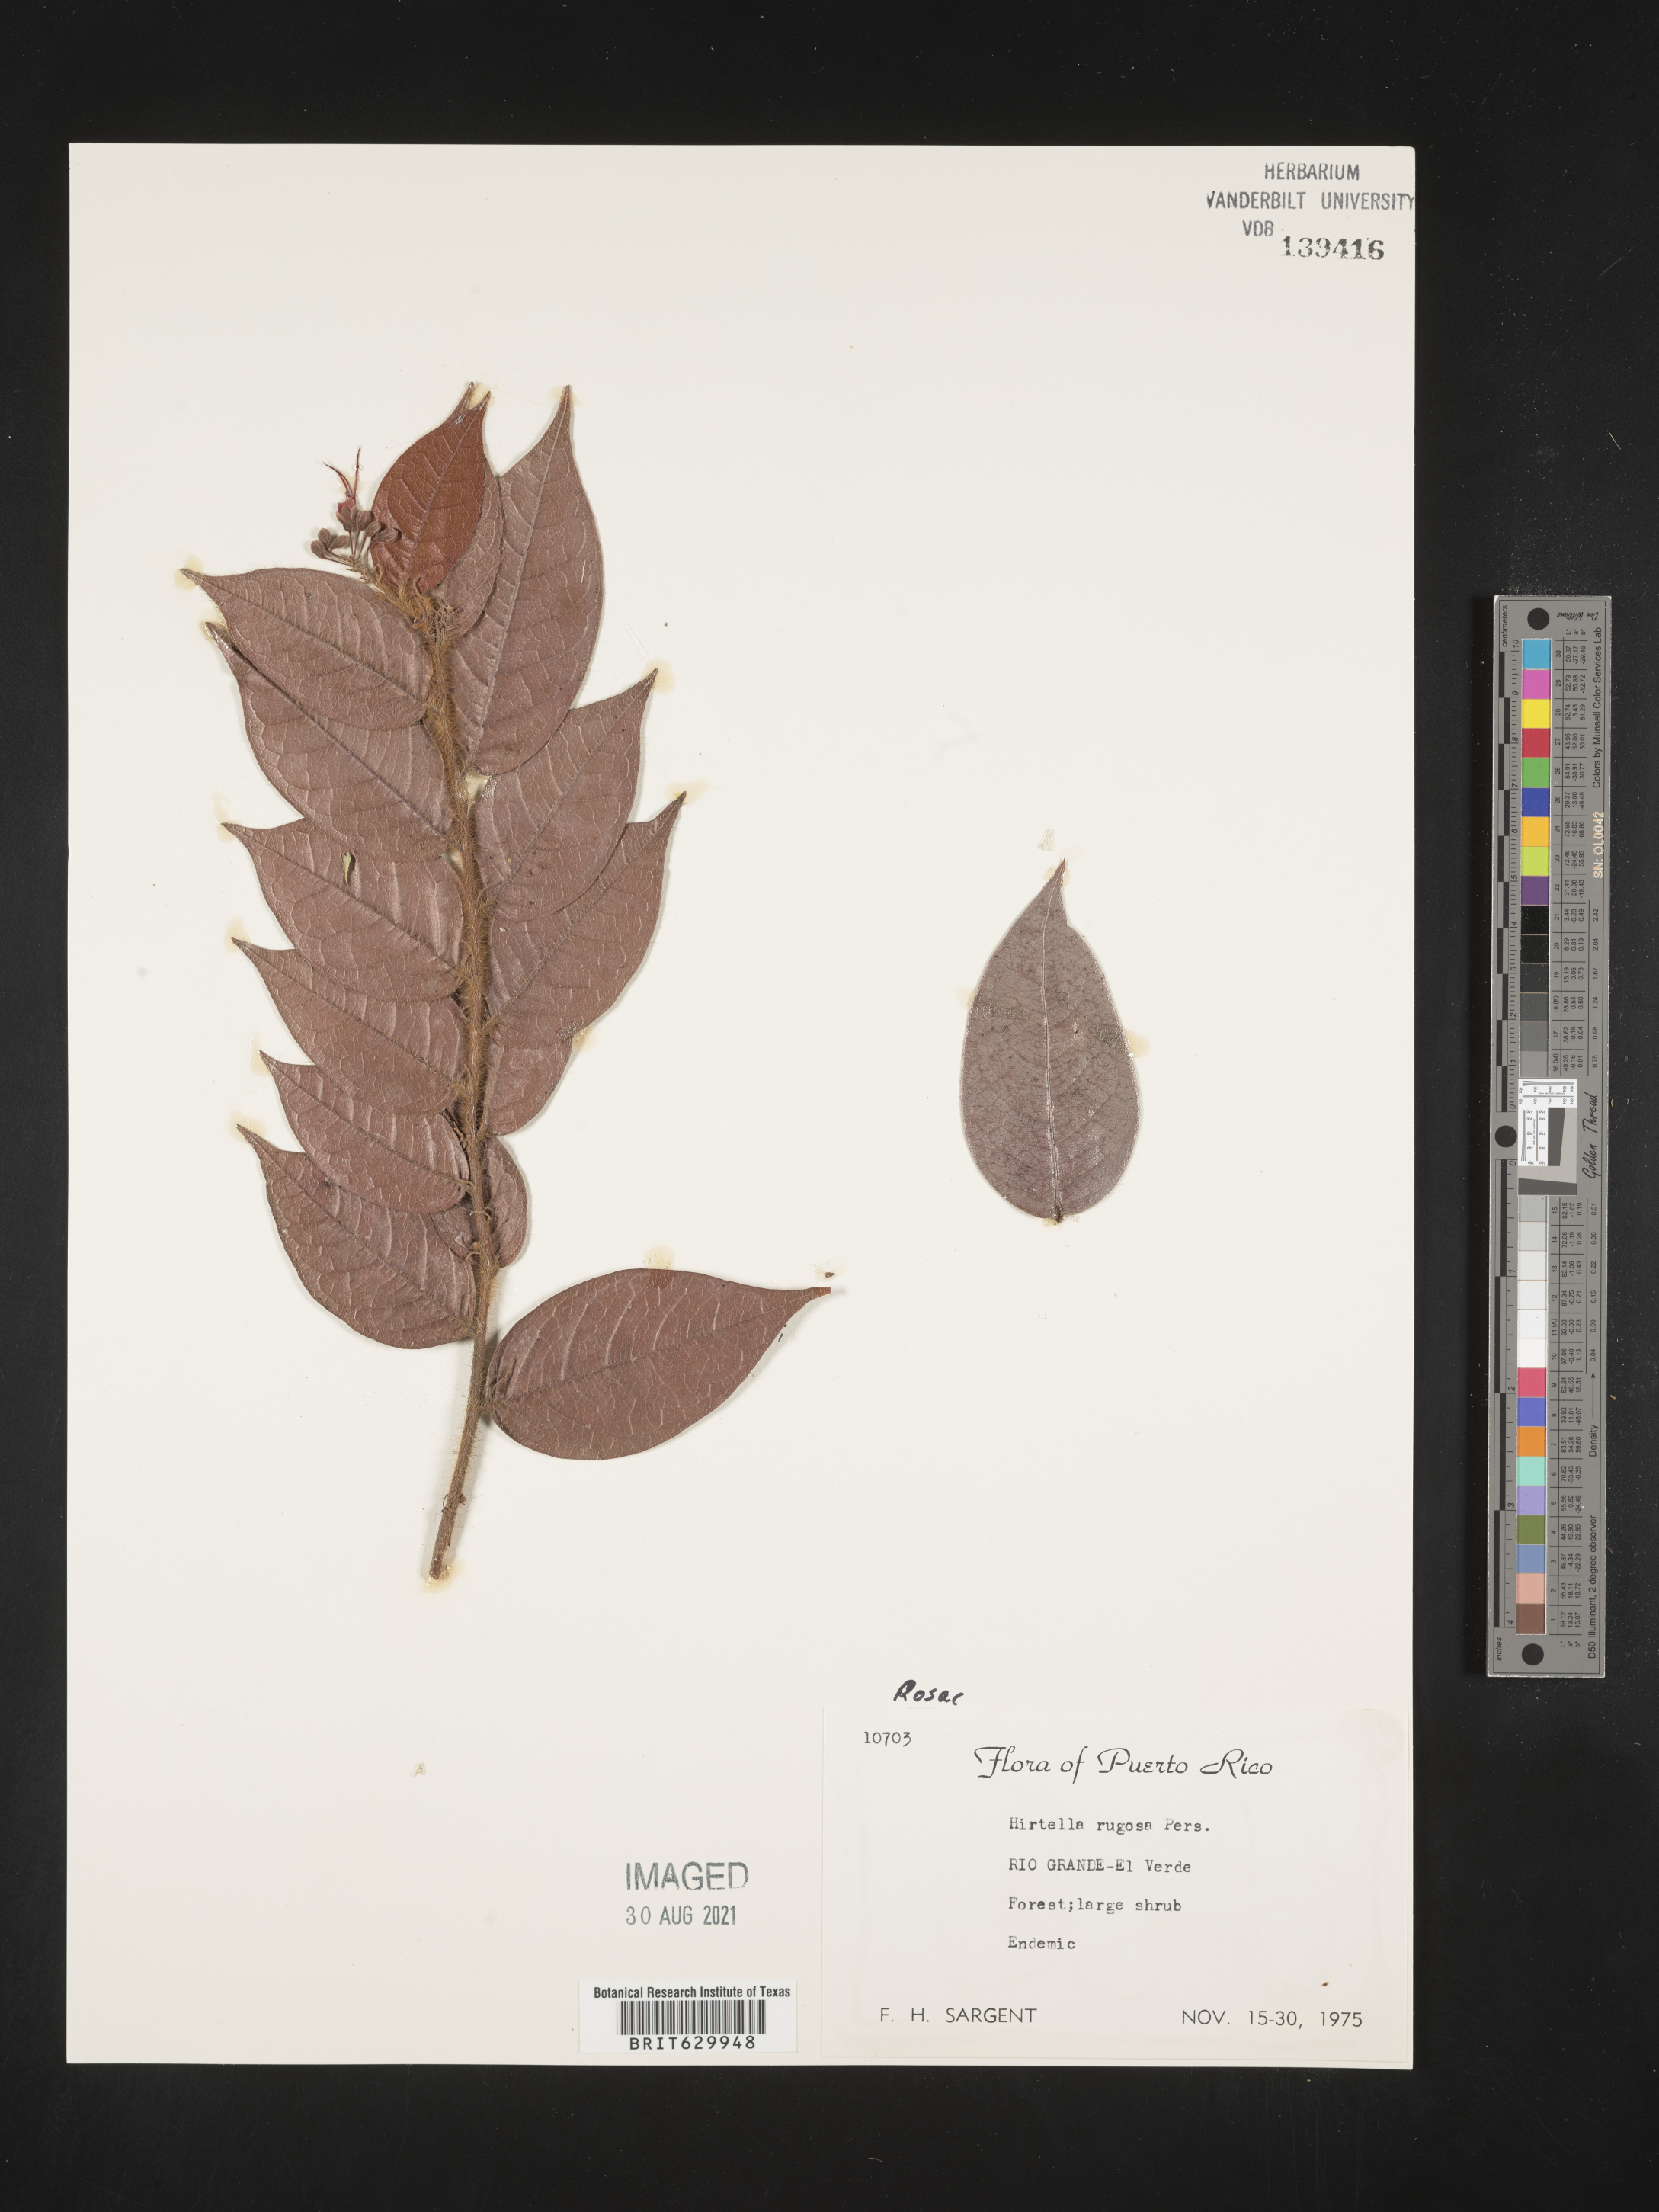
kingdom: Plantae
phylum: Tracheophyta
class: Magnoliopsida
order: Malpighiales
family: Chrysobalanaceae
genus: Hirtella
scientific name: Hirtella rugosa
